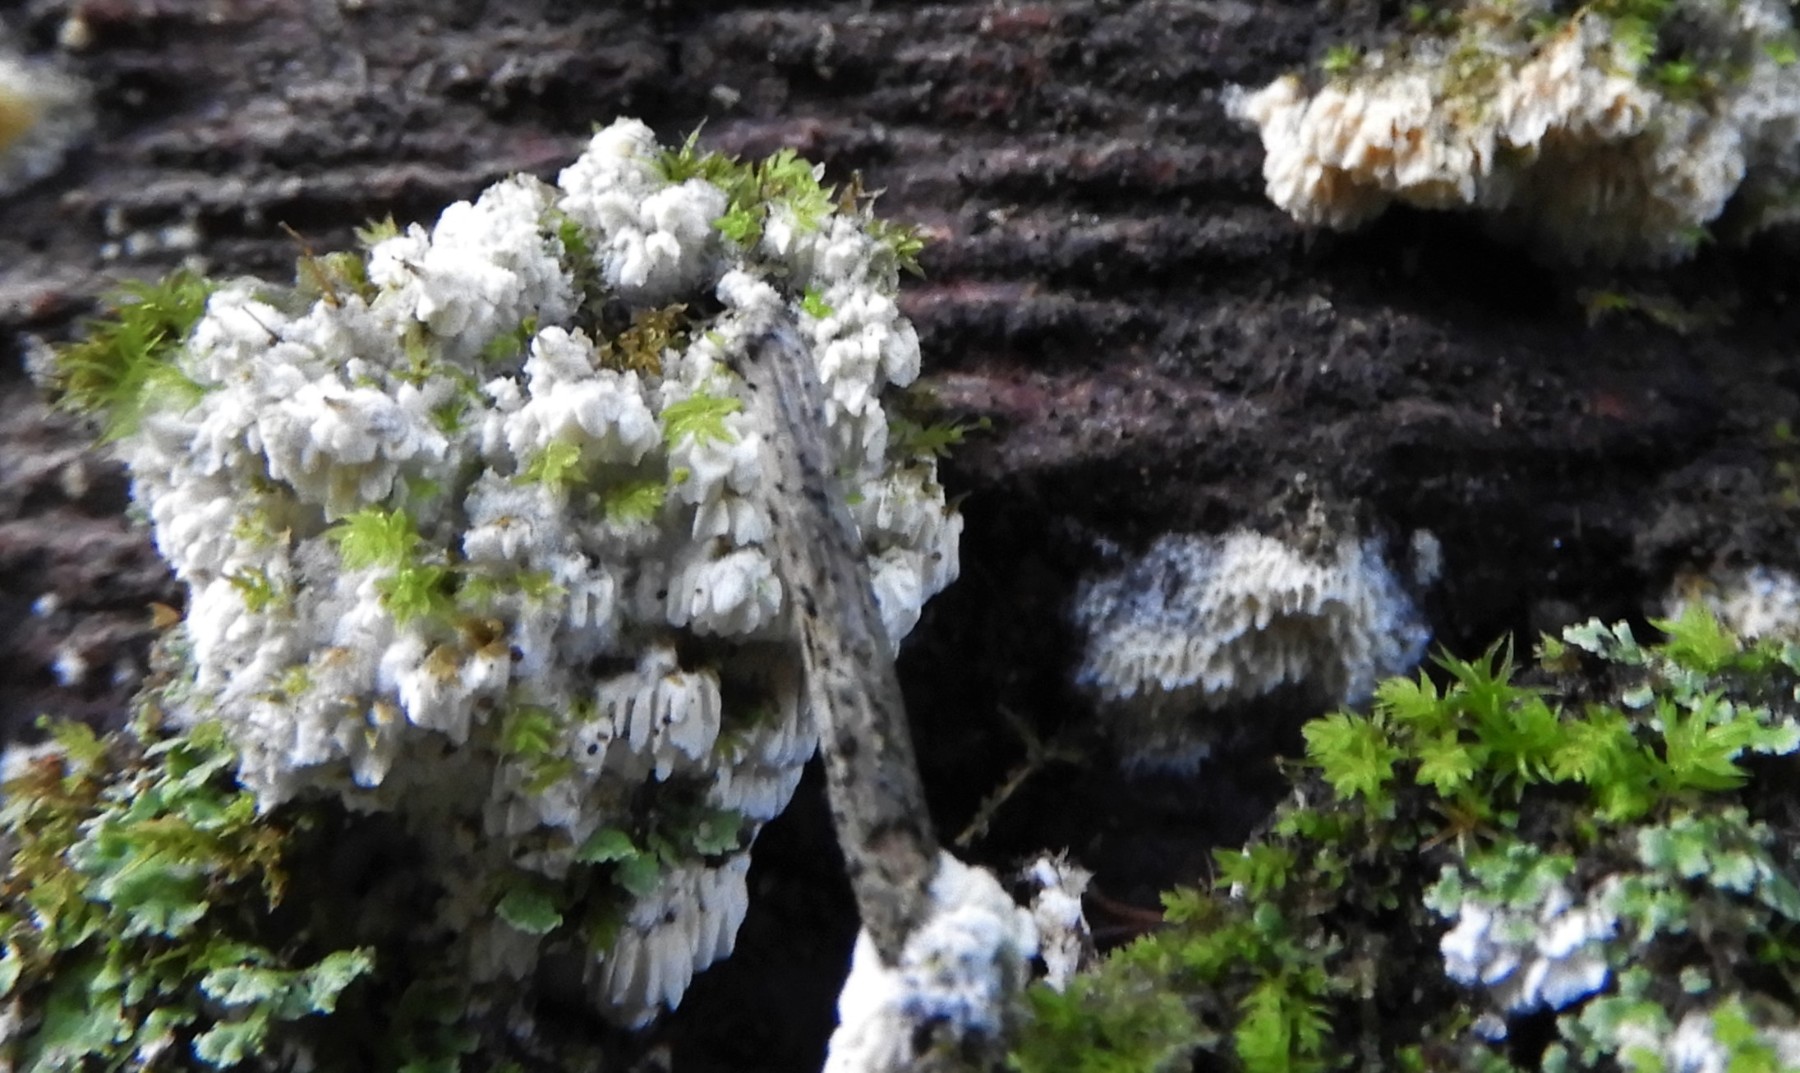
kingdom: Fungi
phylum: Basidiomycota
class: Agaricomycetes
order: Hymenochaetales
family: Schizoporaceae
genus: Schizopora
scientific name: Schizopora paradoxa
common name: hvid tandsvamp
